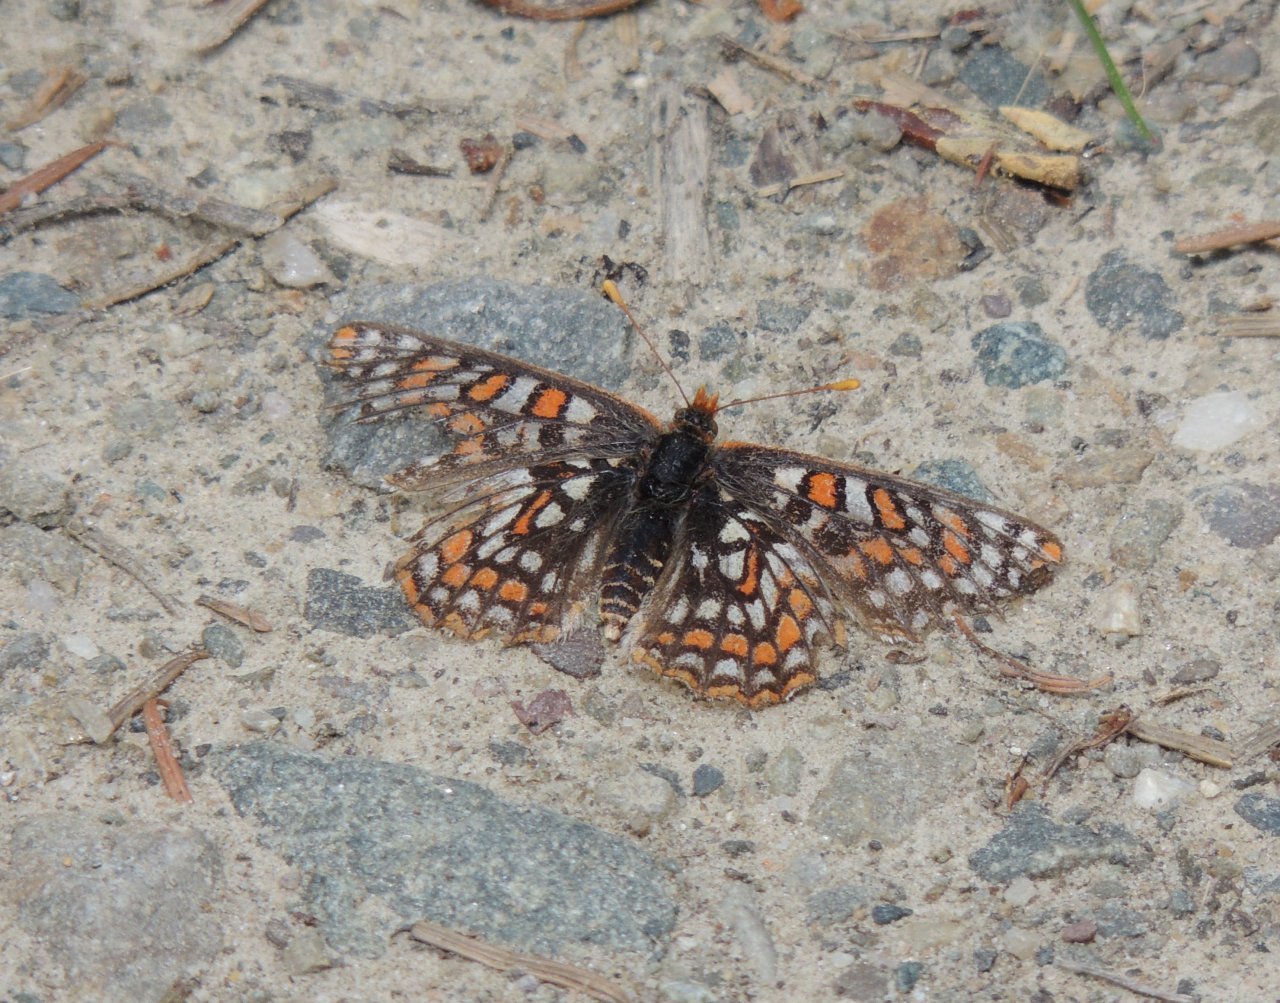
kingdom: Animalia
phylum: Arthropoda
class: Insecta
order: Lepidoptera
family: Nymphalidae
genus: Occidryas
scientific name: Occidryas editha
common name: Edith's Checkerspot
